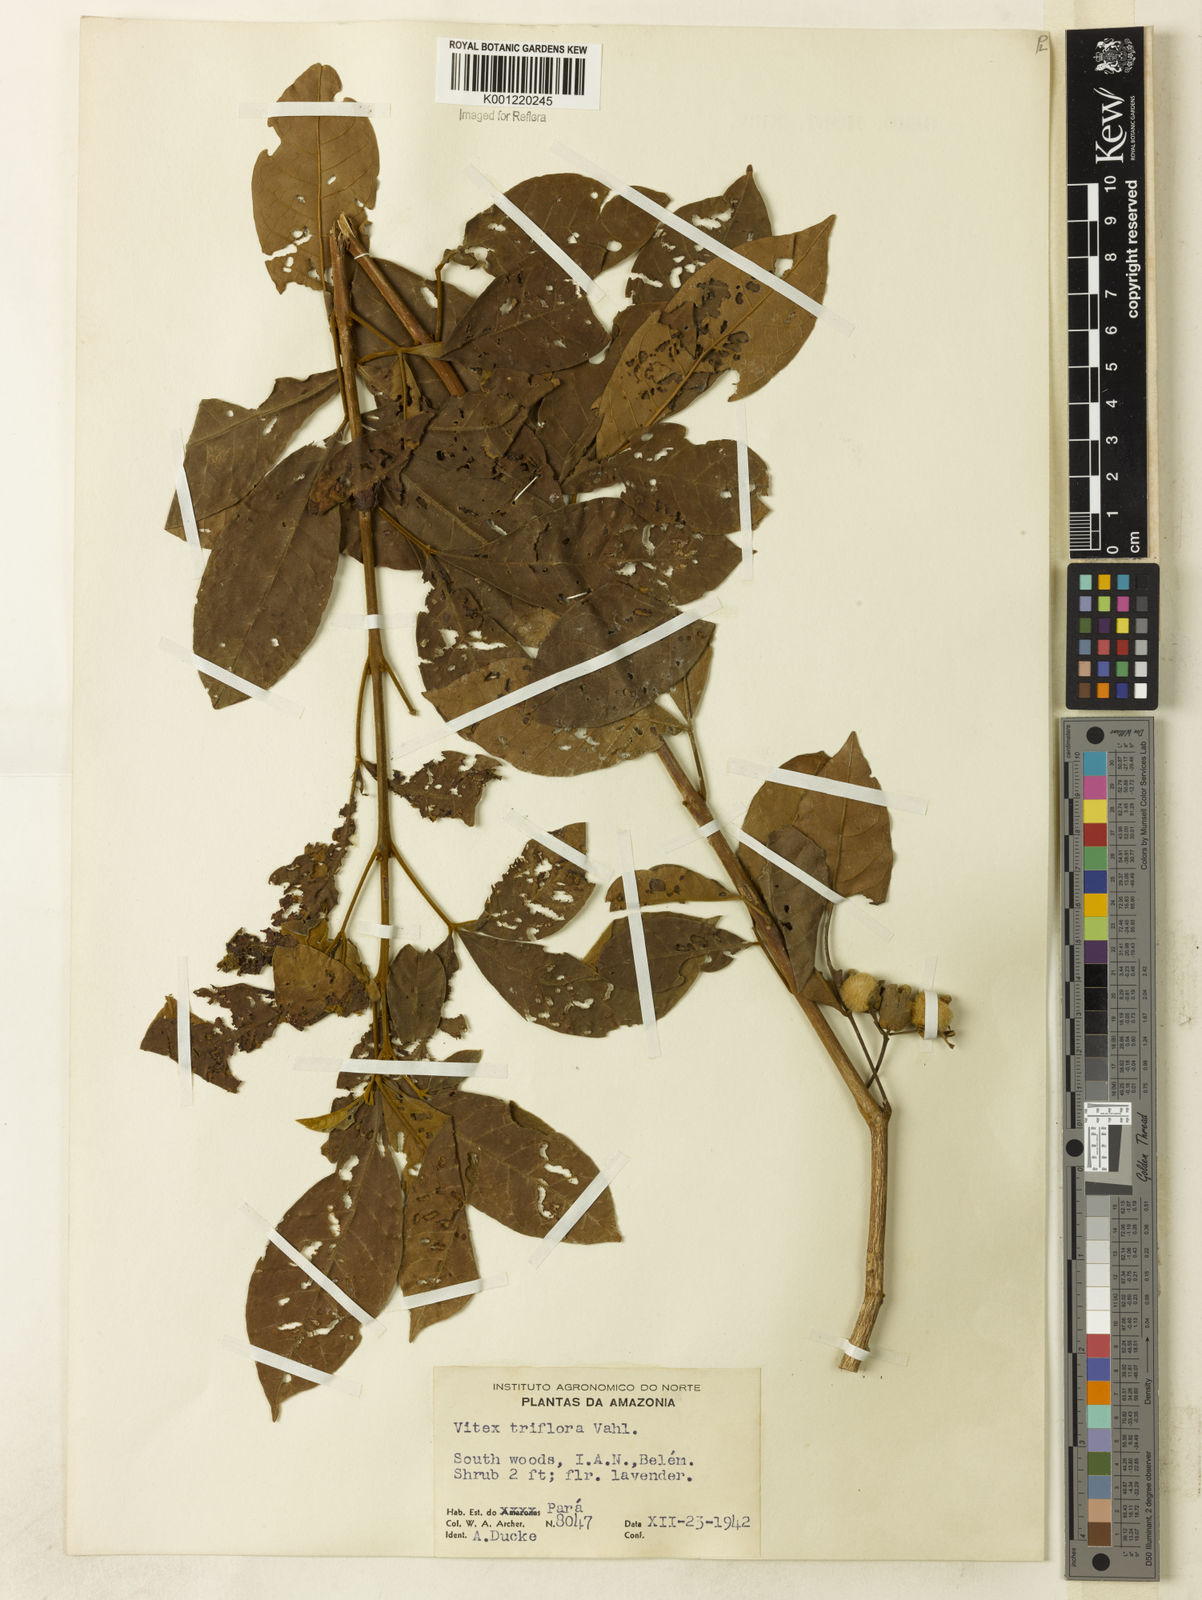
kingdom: Plantae
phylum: Tracheophyta
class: Magnoliopsida
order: Lamiales
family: Lamiaceae
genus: Vitex
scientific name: Vitex triflora
